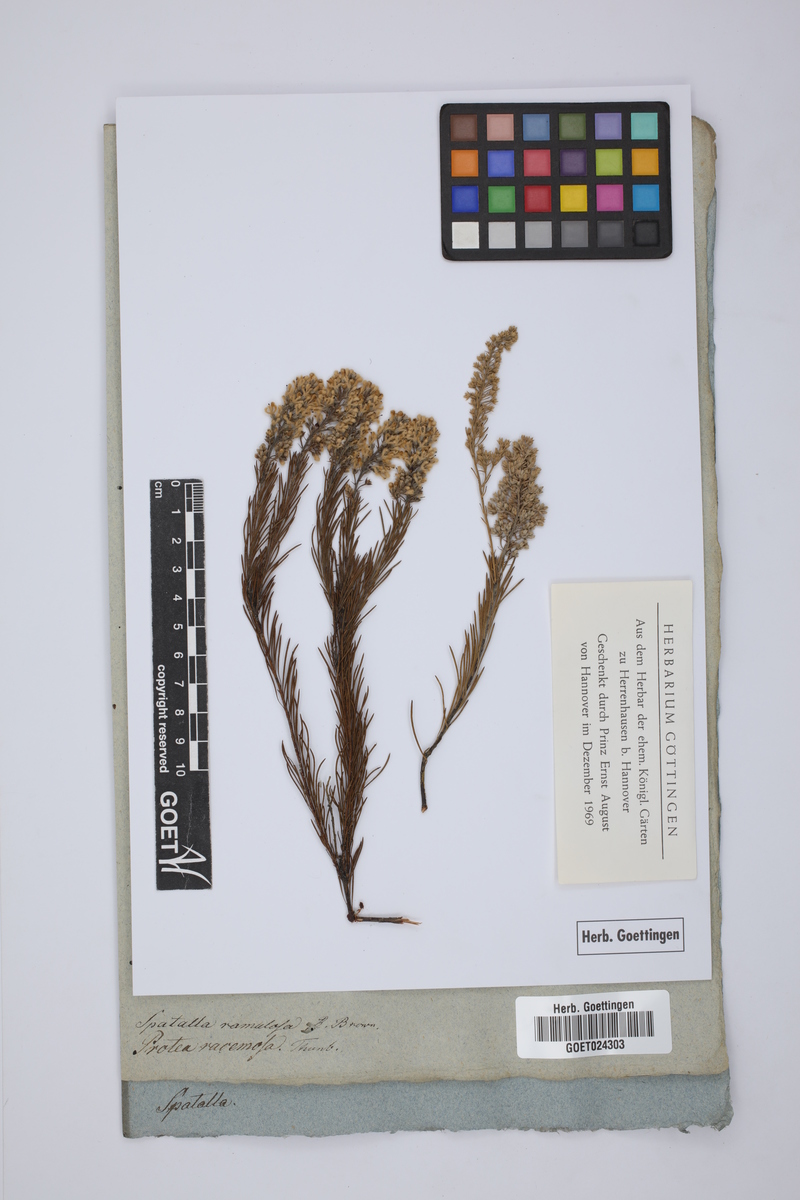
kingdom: Plantae
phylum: Tracheophyta
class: Magnoliopsida
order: Proteales
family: Proteaceae
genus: Spatalla
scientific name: Spatalla racemosa
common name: Lax-stalked spoon
